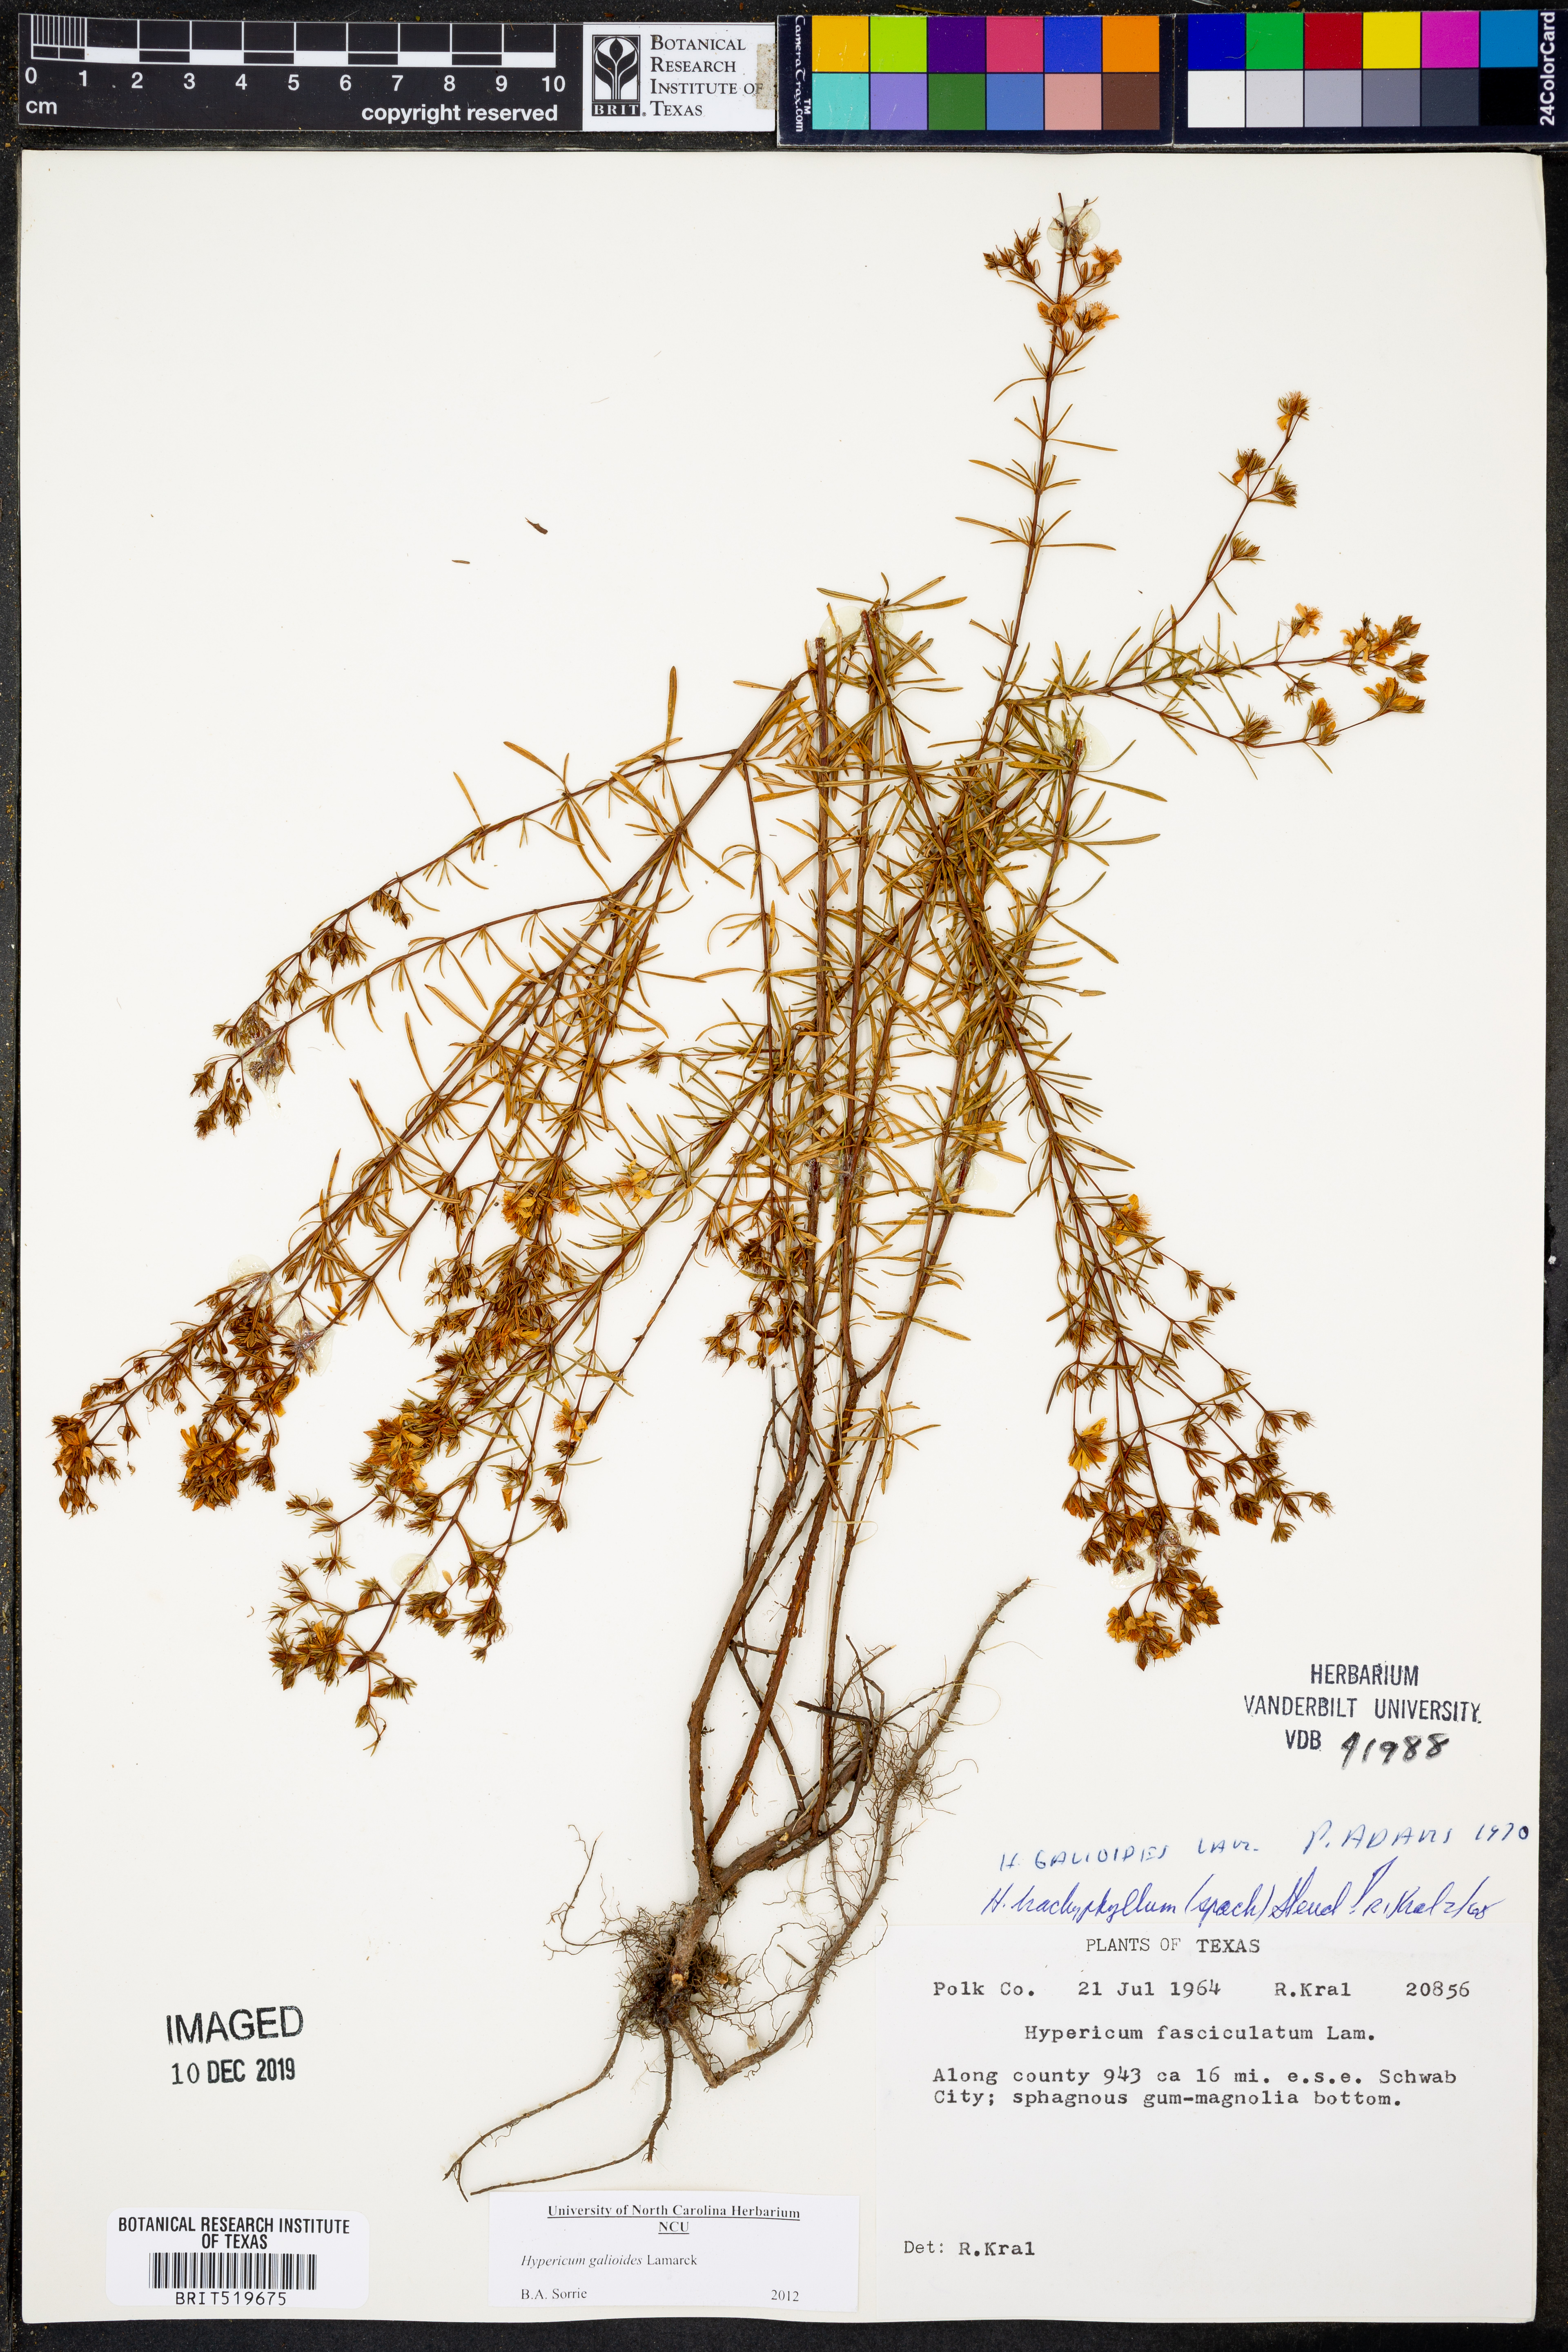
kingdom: Plantae
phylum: Tracheophyta
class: Magnoliopsida
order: Malpighiales
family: Hypericaceae
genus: Hypericum
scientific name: Hypericum galioides
